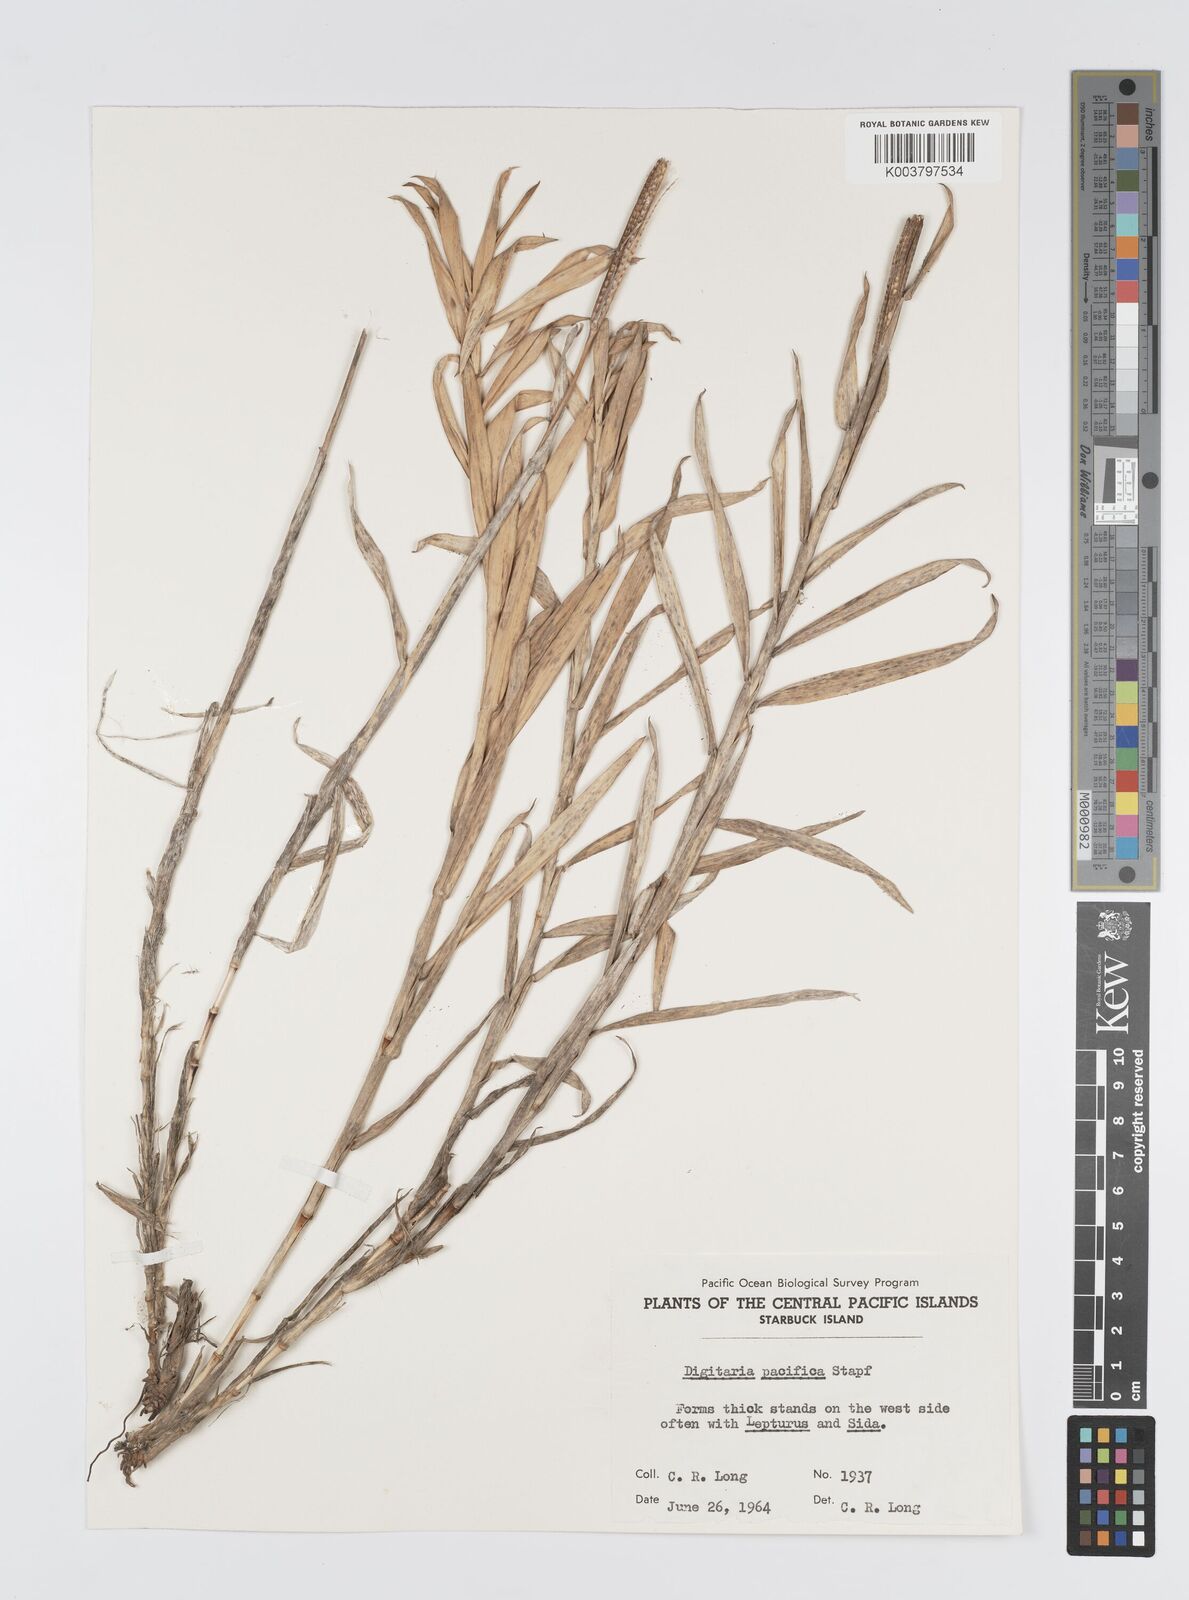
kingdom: Plantae
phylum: Tracheophyta
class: Liliopsida
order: Poales
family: Poaceae
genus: Digitaria
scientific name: Digitaria stenotaphrodes
